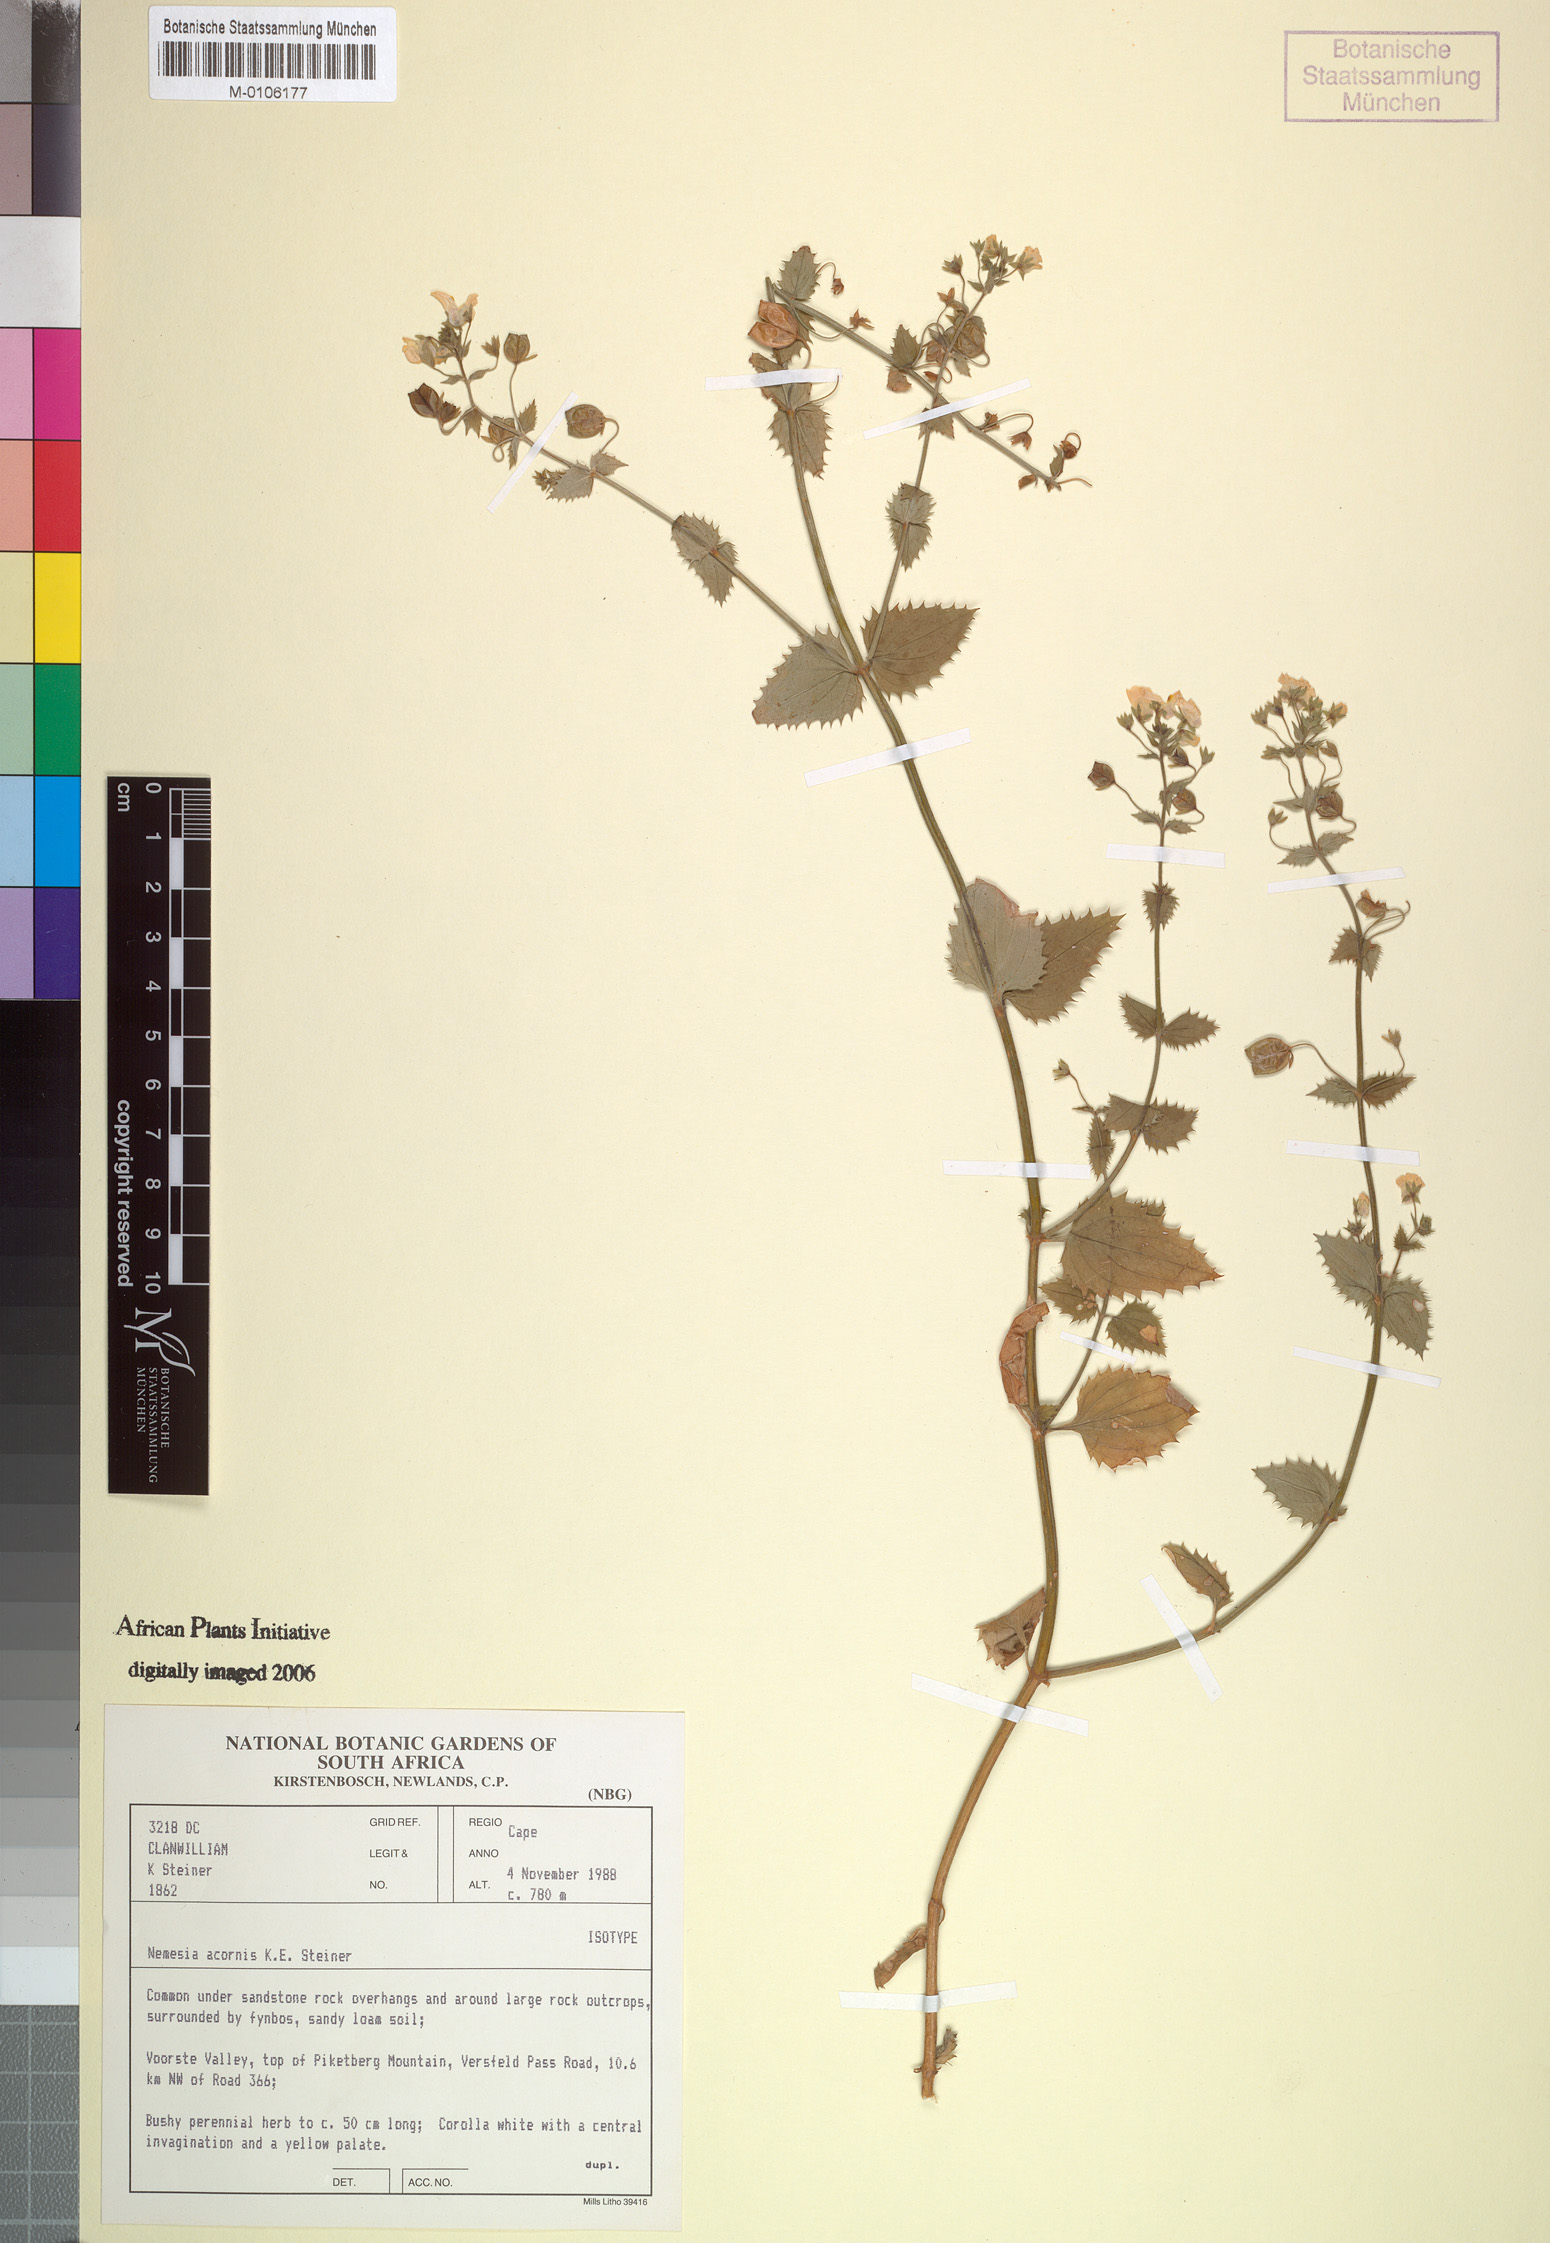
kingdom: Plantae
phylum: Tracheophyta
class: Magnoliopsida
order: Lamiales
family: Scrophulariaceae
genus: Nemesia
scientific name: Nemesia acornis
